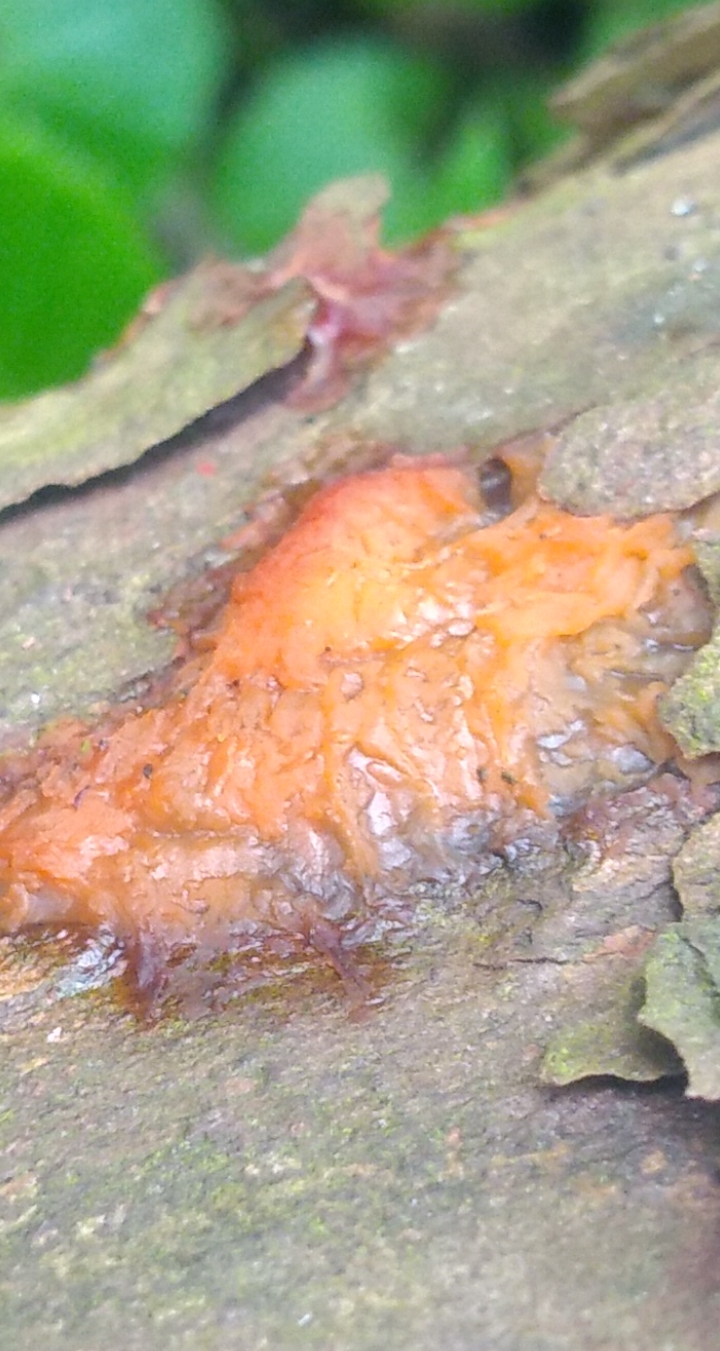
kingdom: Fungi
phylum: Basidiomycota
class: Dacrymycetes
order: Dacrymycetales
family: Dacrymycetaceae
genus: Dacrymyces
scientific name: Dacrymyces
